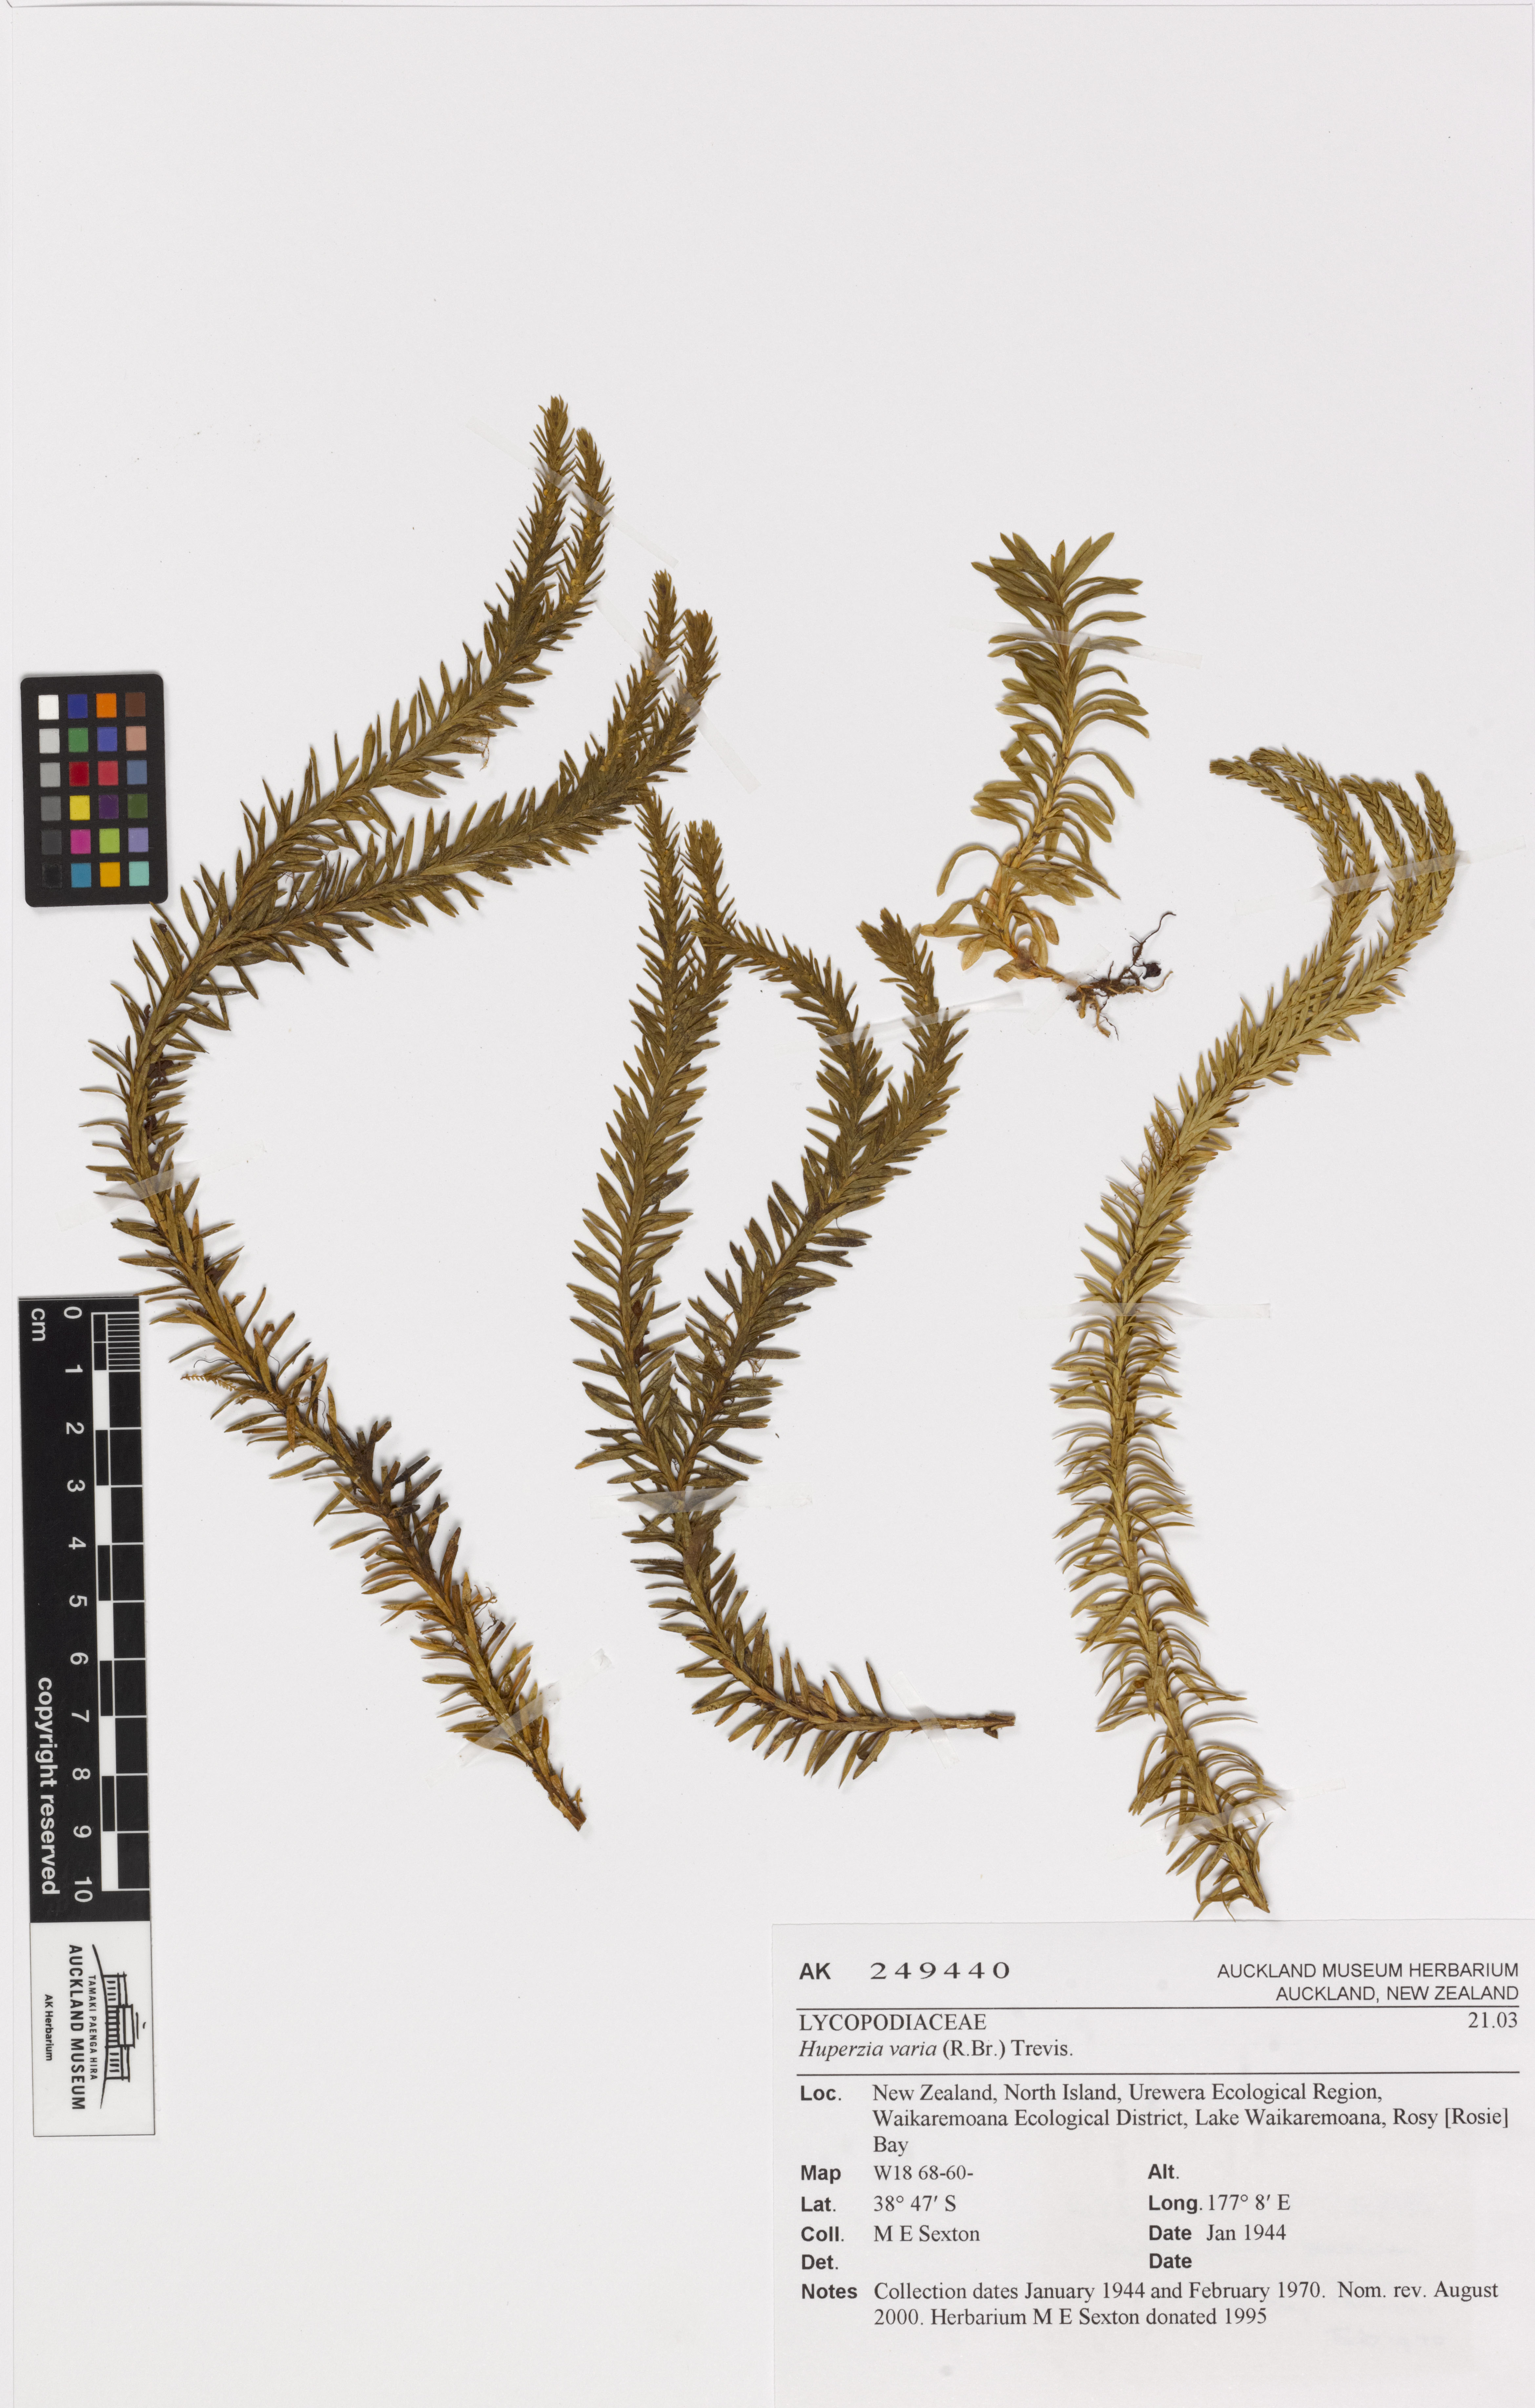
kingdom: Plantae
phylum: Tracheophyta
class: Lycopodiopsida
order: Lycopodiales
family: Lycopodiaceae
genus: Phlegmariurus
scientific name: Phlegmariurus varius
